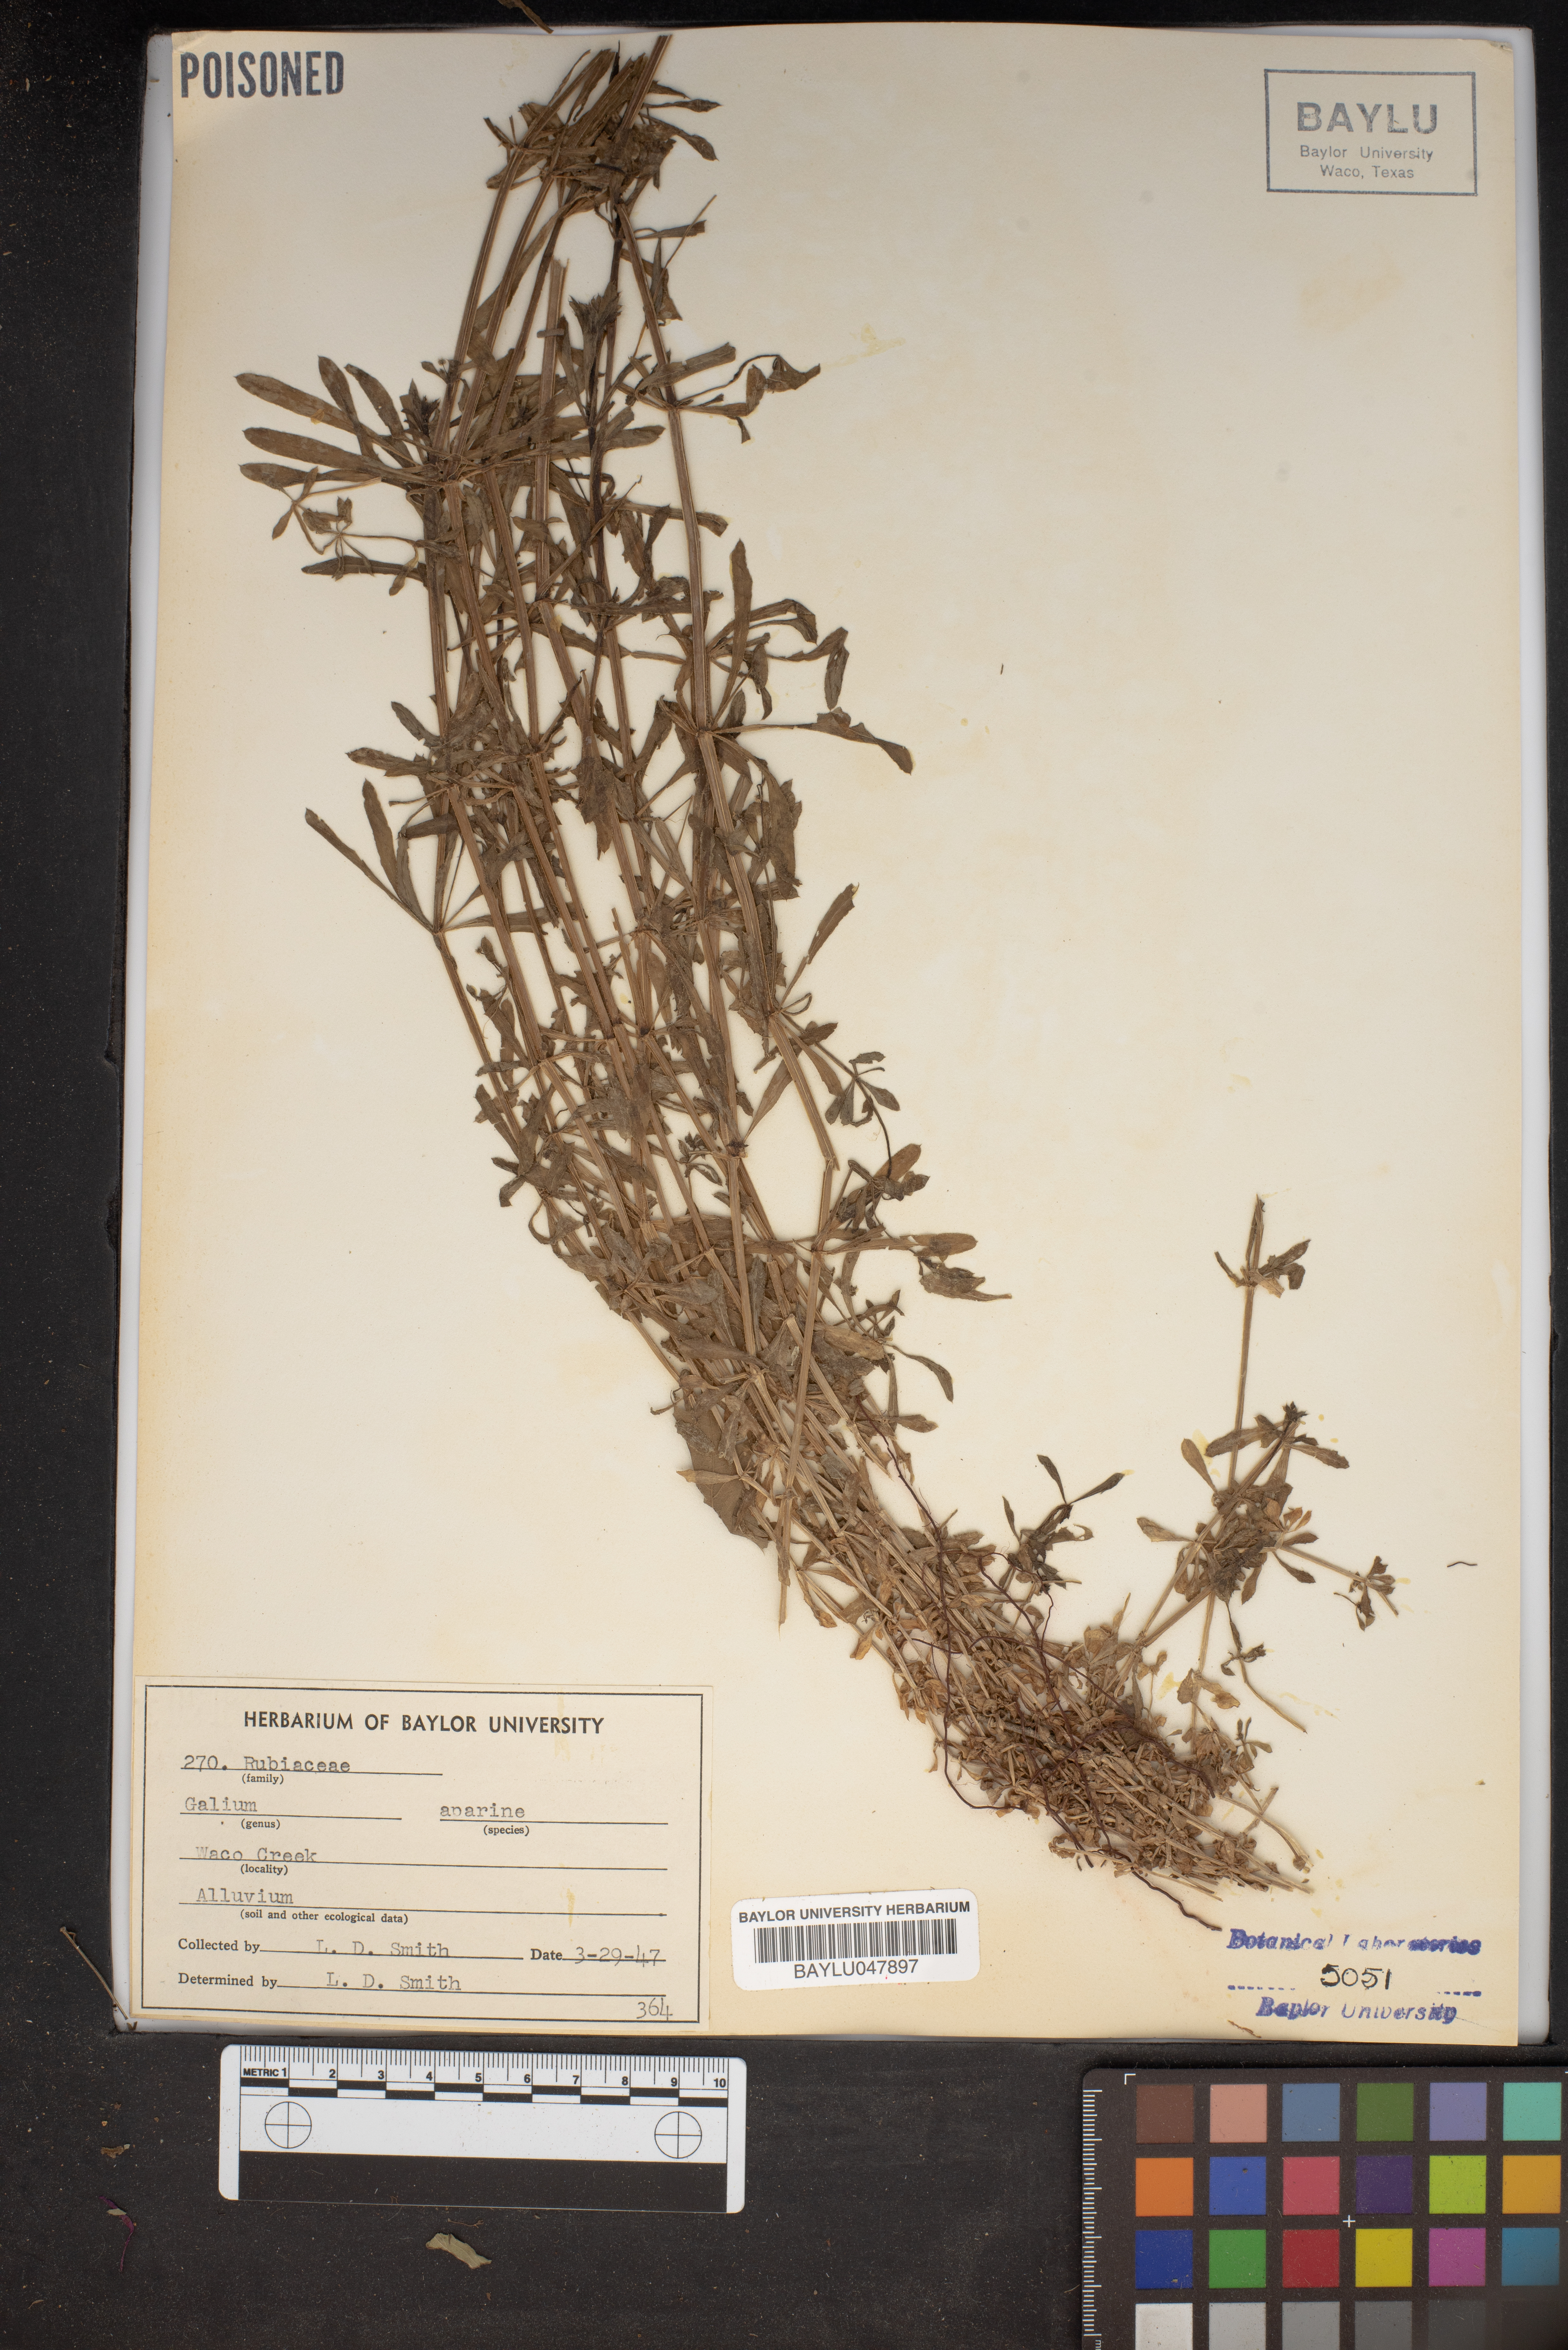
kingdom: Plantae
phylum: Tracheophyta
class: Magnoliopsida
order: Gentianales
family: Rubiaceae
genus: Galium
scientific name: Galium aparine
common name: Cleavers
